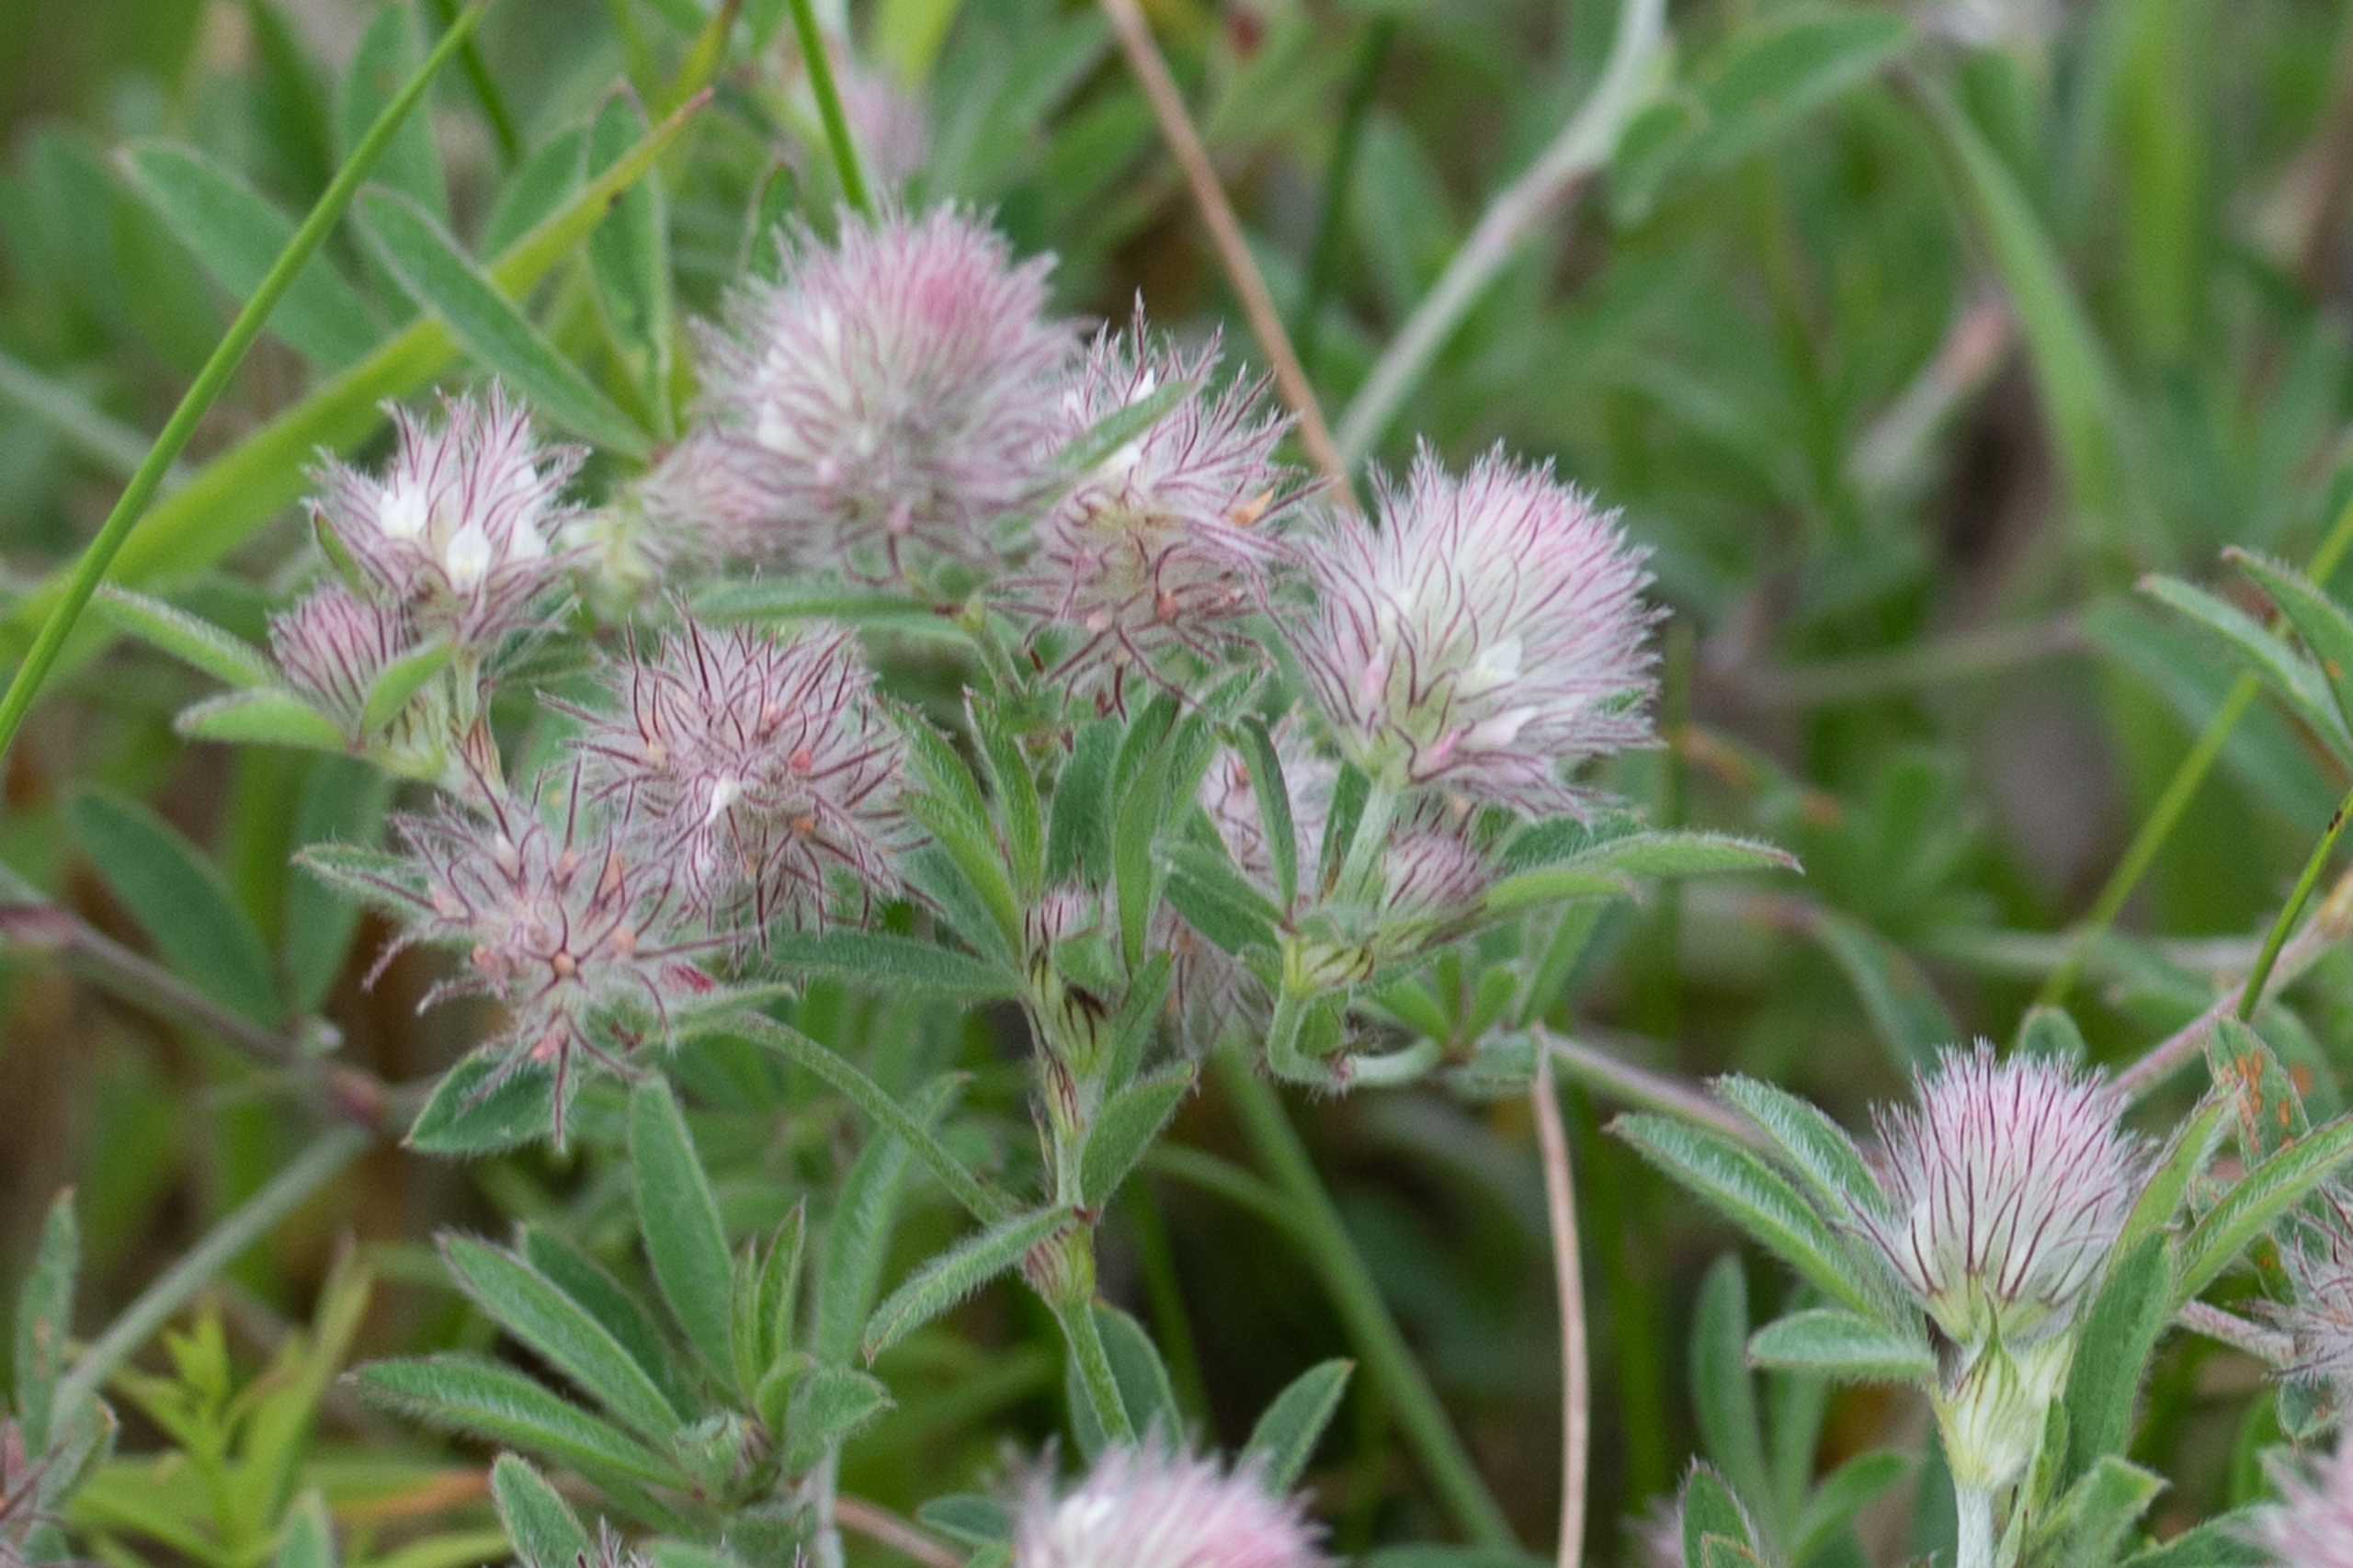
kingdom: Plantae
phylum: Tracheophyta
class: Magnoliopsida
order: Fabales
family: Fabaceae
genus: Trifolium
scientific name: Trifolium arvense
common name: Hare-kløver
